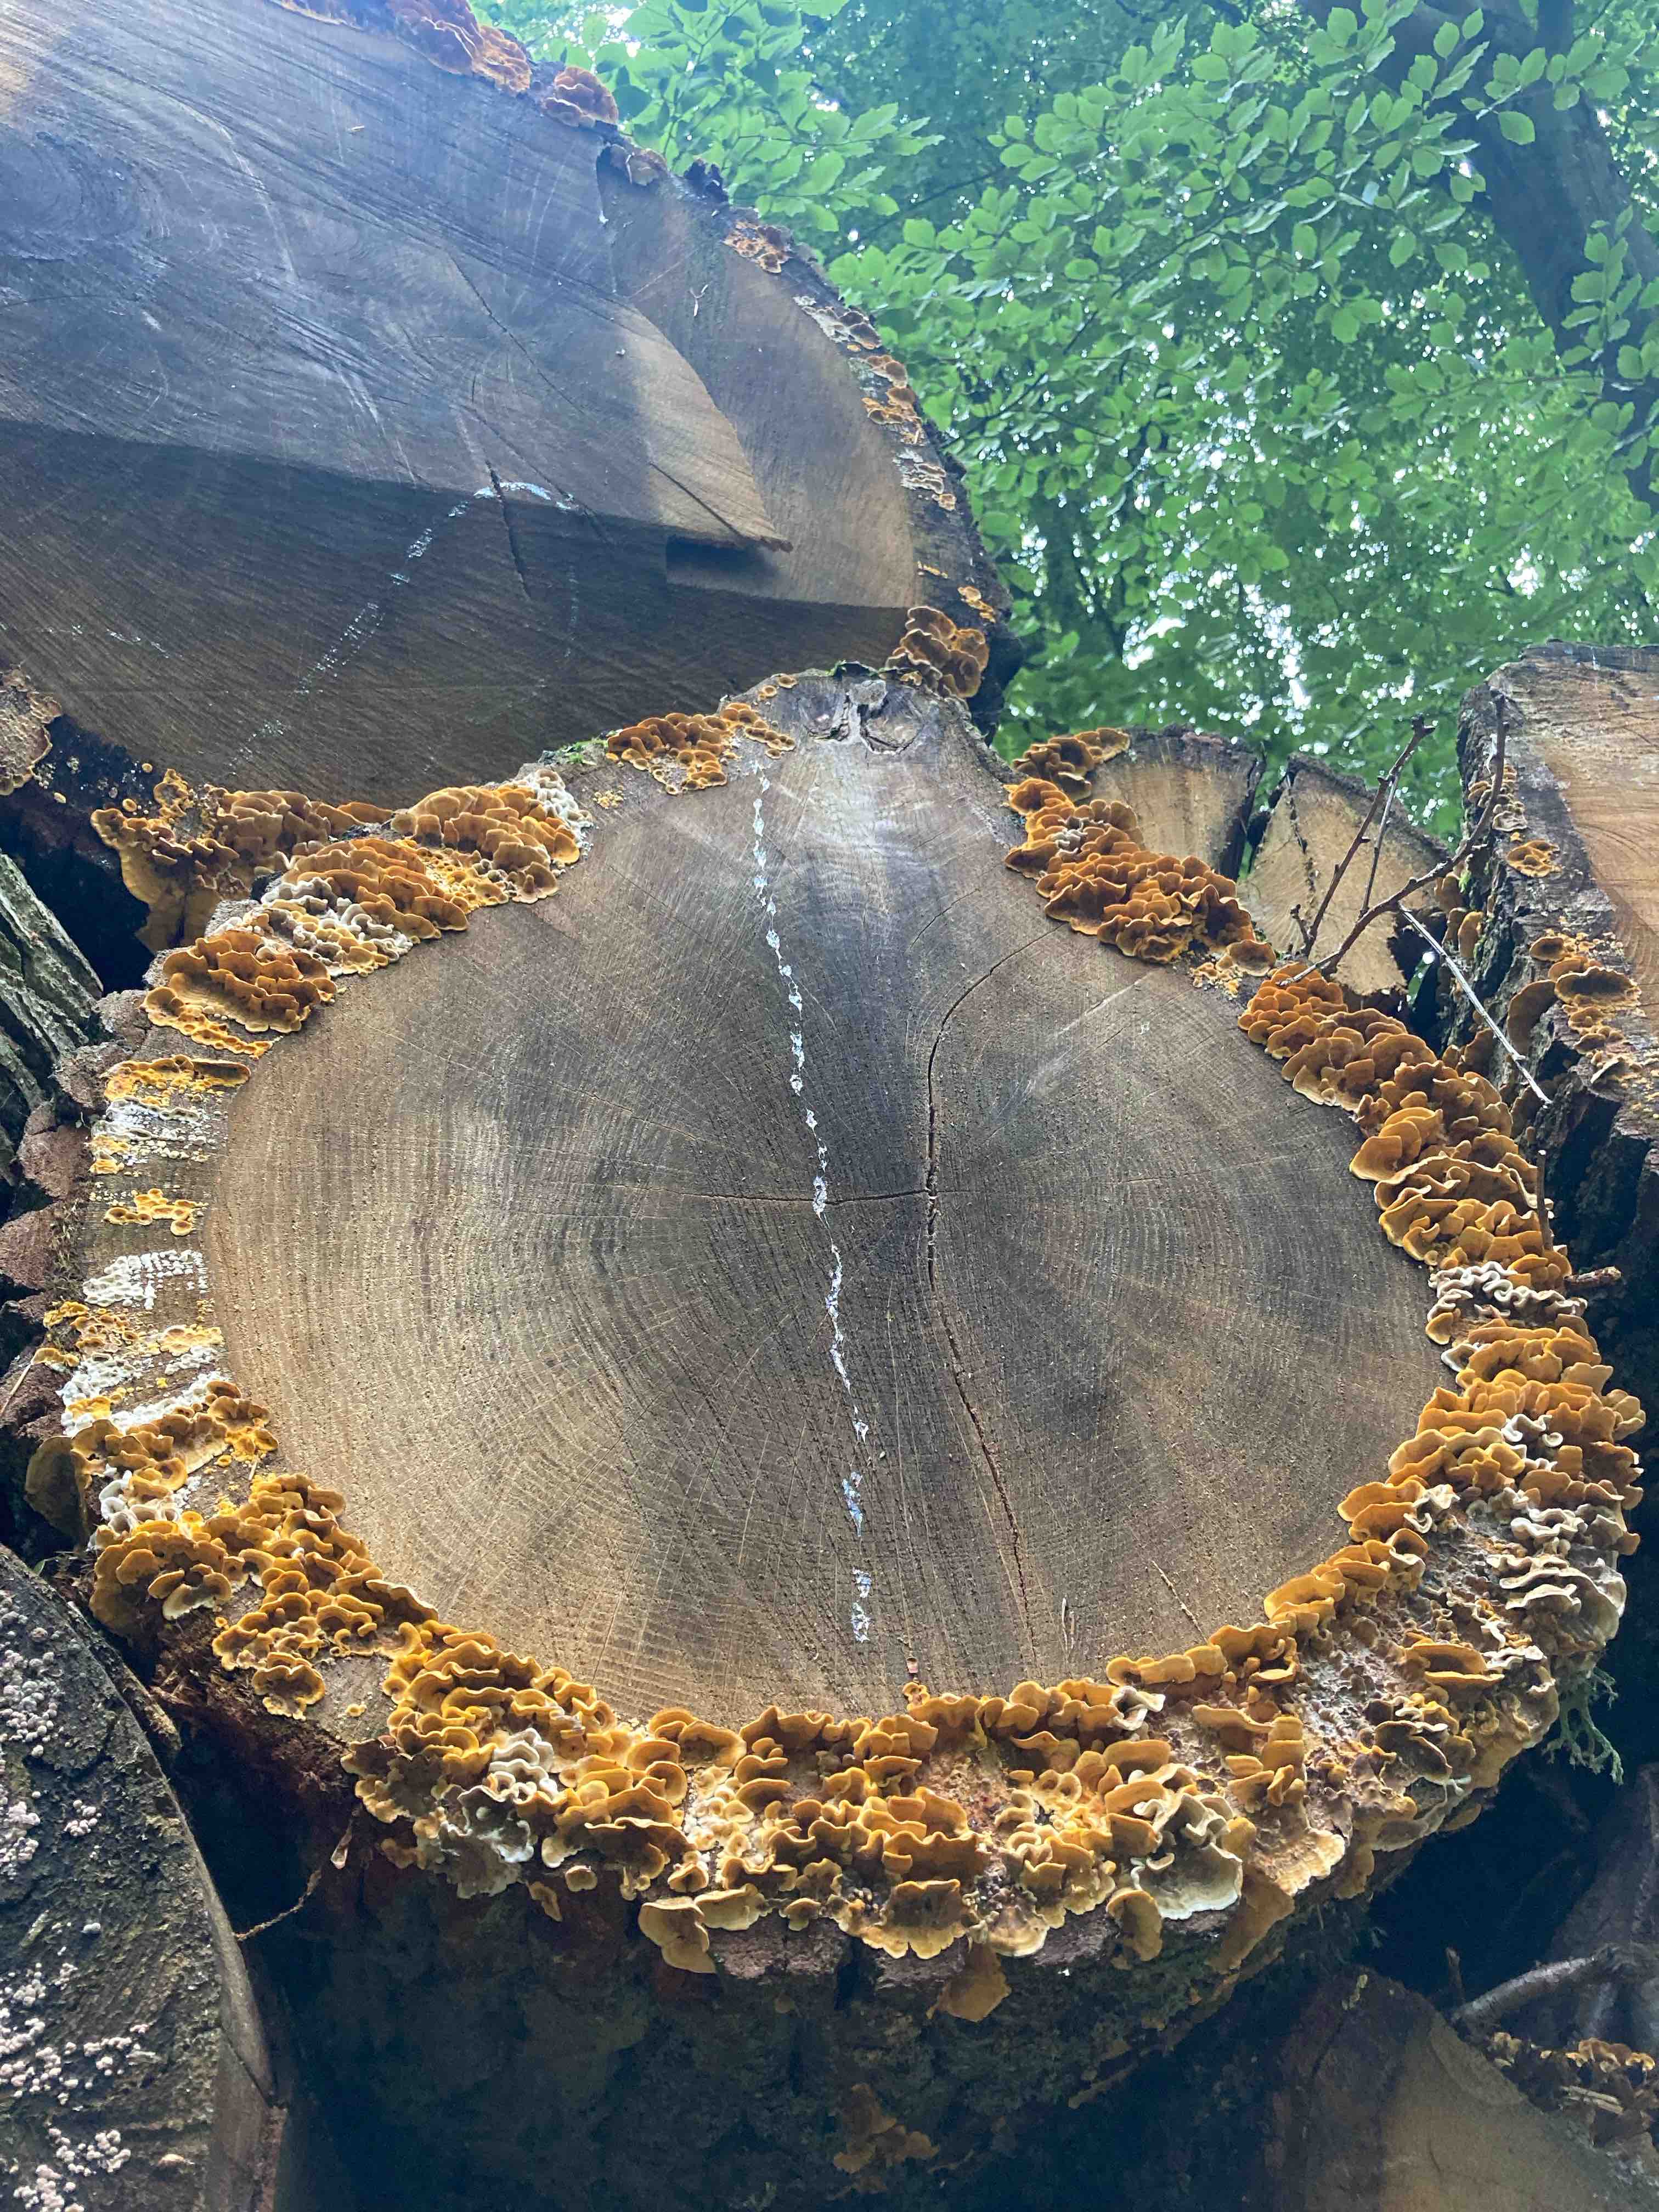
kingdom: Fungi
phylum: Basidiomycota
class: Agaricomycetes
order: Polyporales
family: Polyporaceae
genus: Trametes
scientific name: Trametes versicolor
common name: broget læderporesvamp
